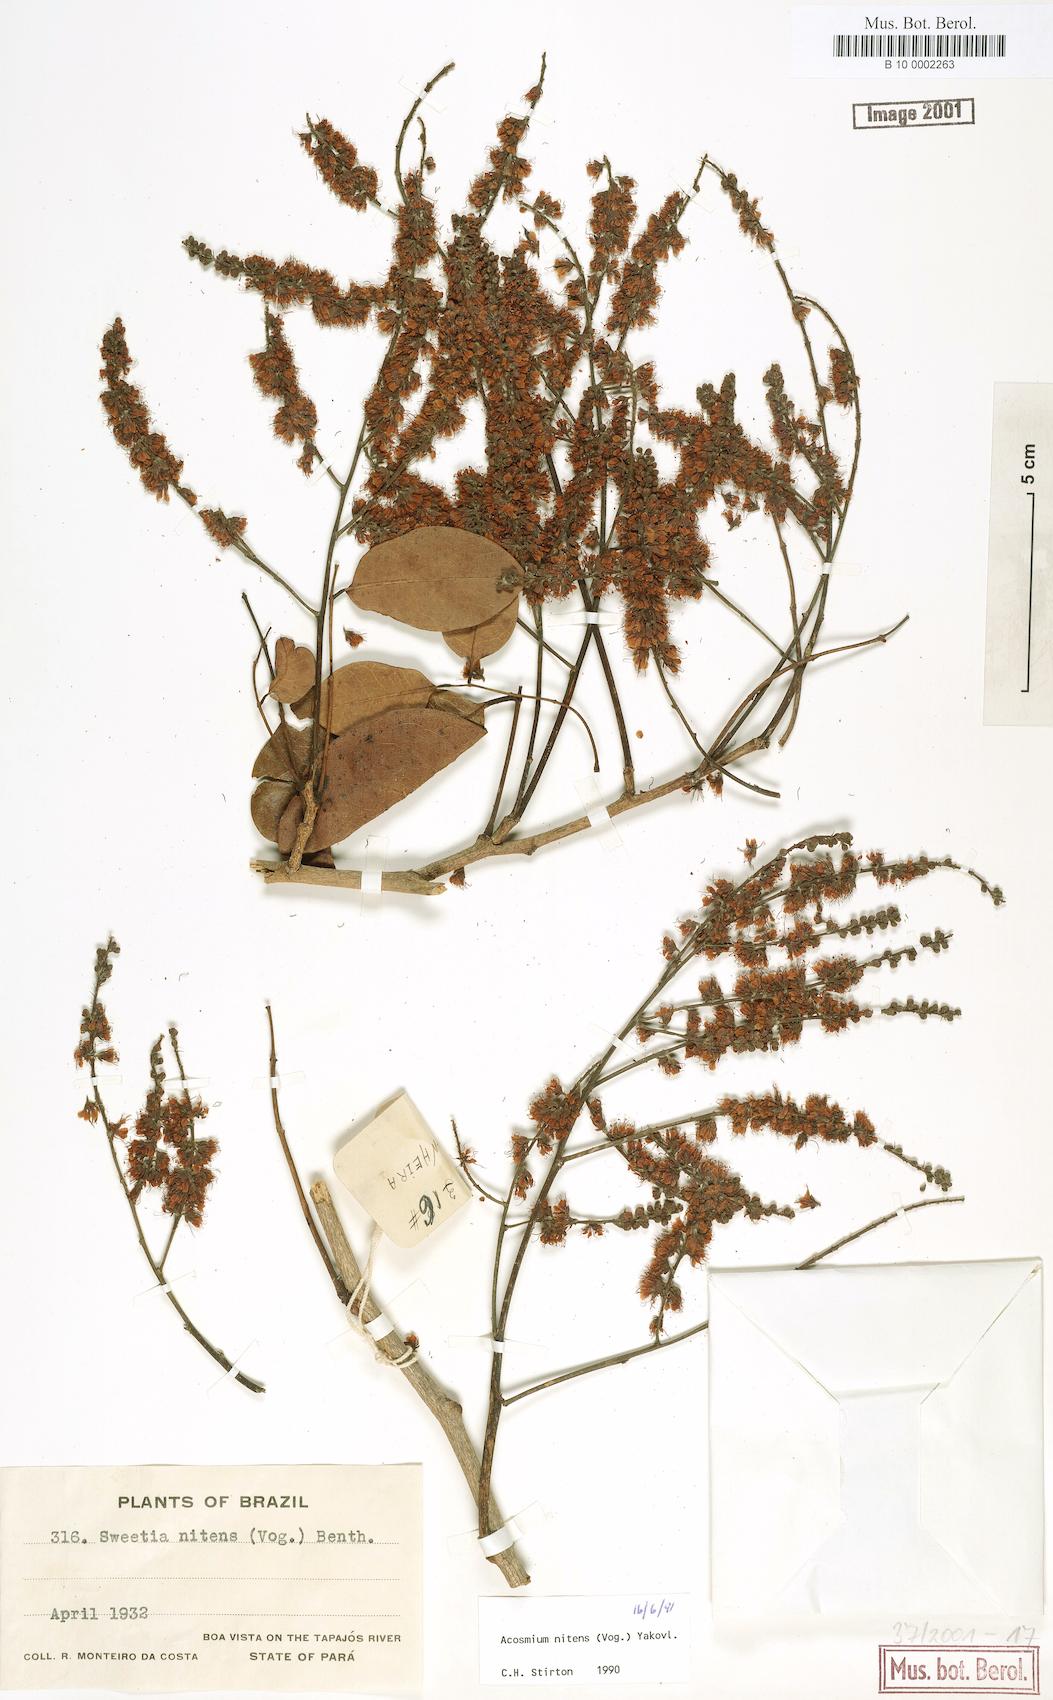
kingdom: Plantae
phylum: Tracheophyta
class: Magnoliopsida
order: Fabales
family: Fabaceae
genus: Leptolobium
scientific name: Leptolobium nitens
